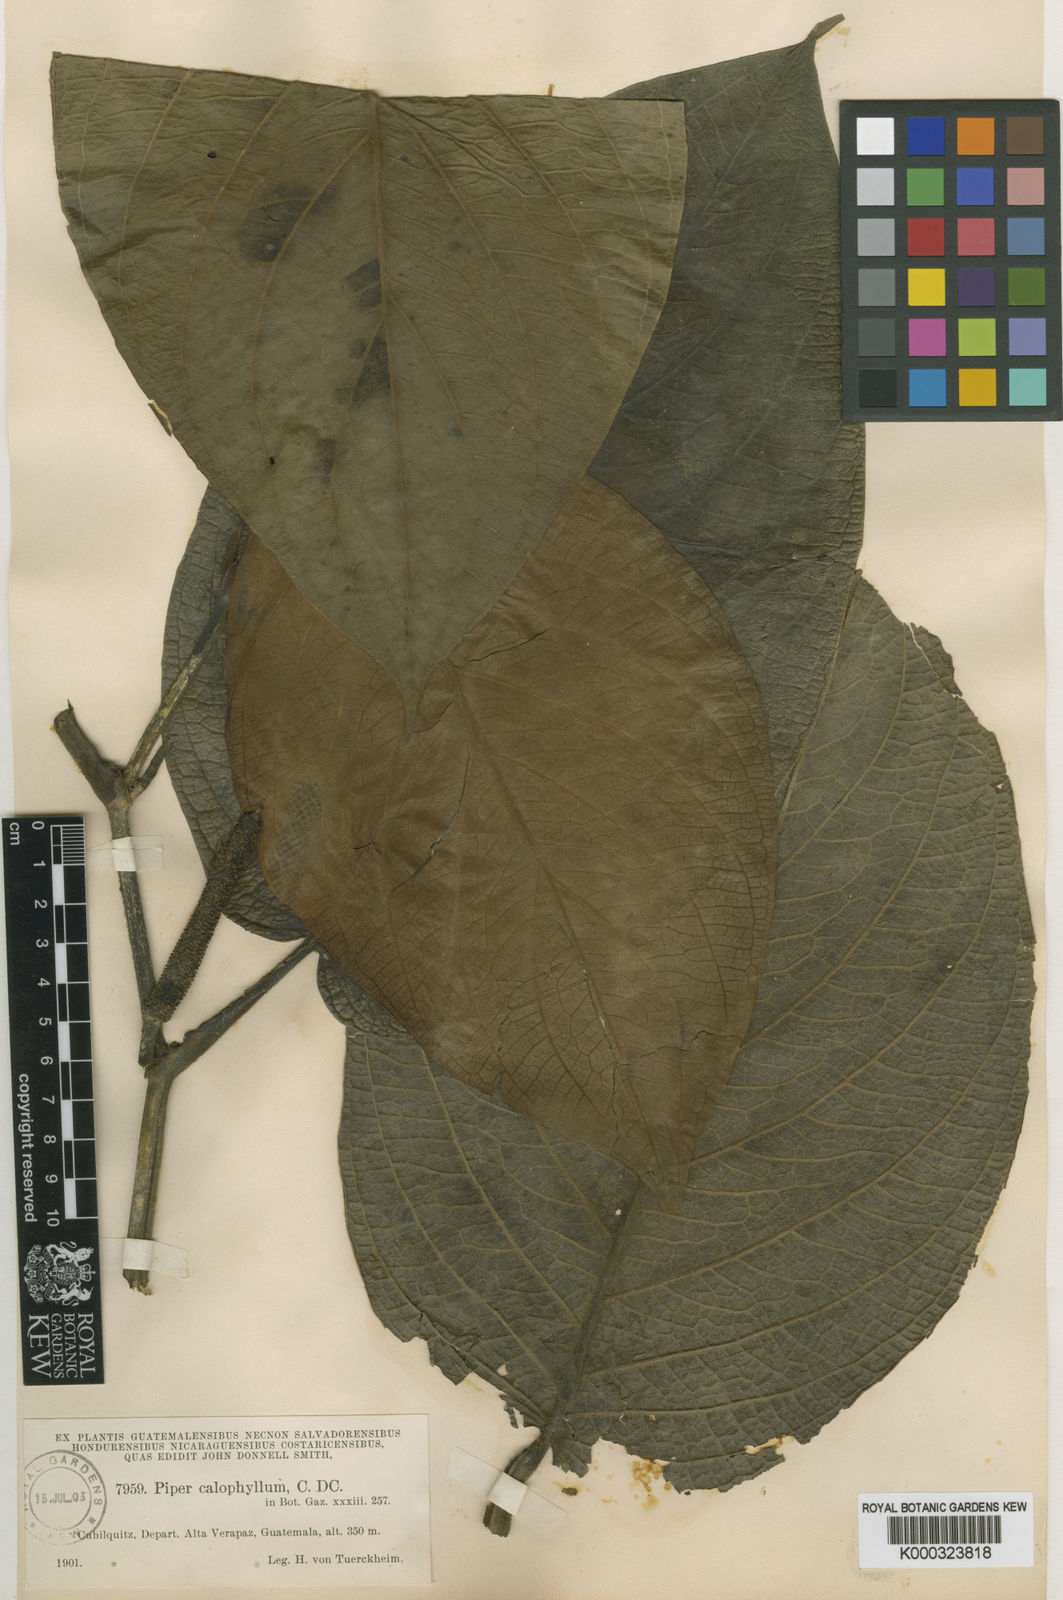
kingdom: Plantae
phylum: Tracheophyta
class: Magnoliopsida
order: Piperales
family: Piperaceae
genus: Piper
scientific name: Piper calophyllum
